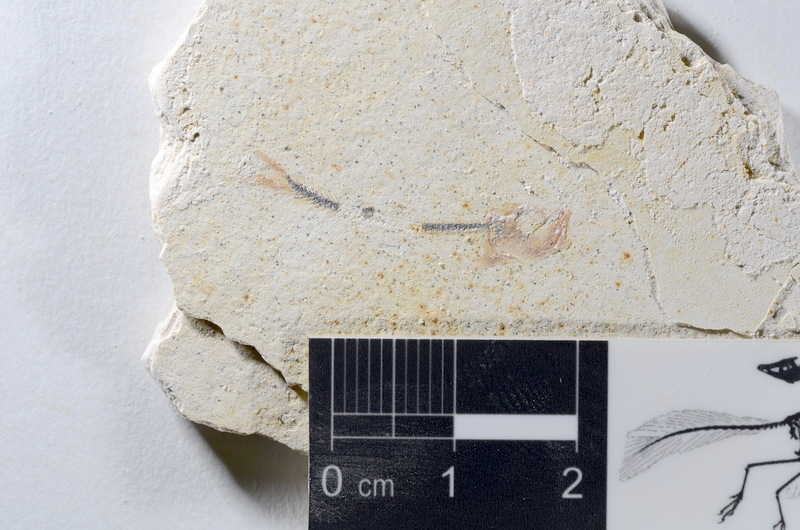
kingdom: Animalia
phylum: Chordata
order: Salmoniformes
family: Orthogonikleithridae
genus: Orthogonikleithrus
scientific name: Orthogonikleithrus hoelli
